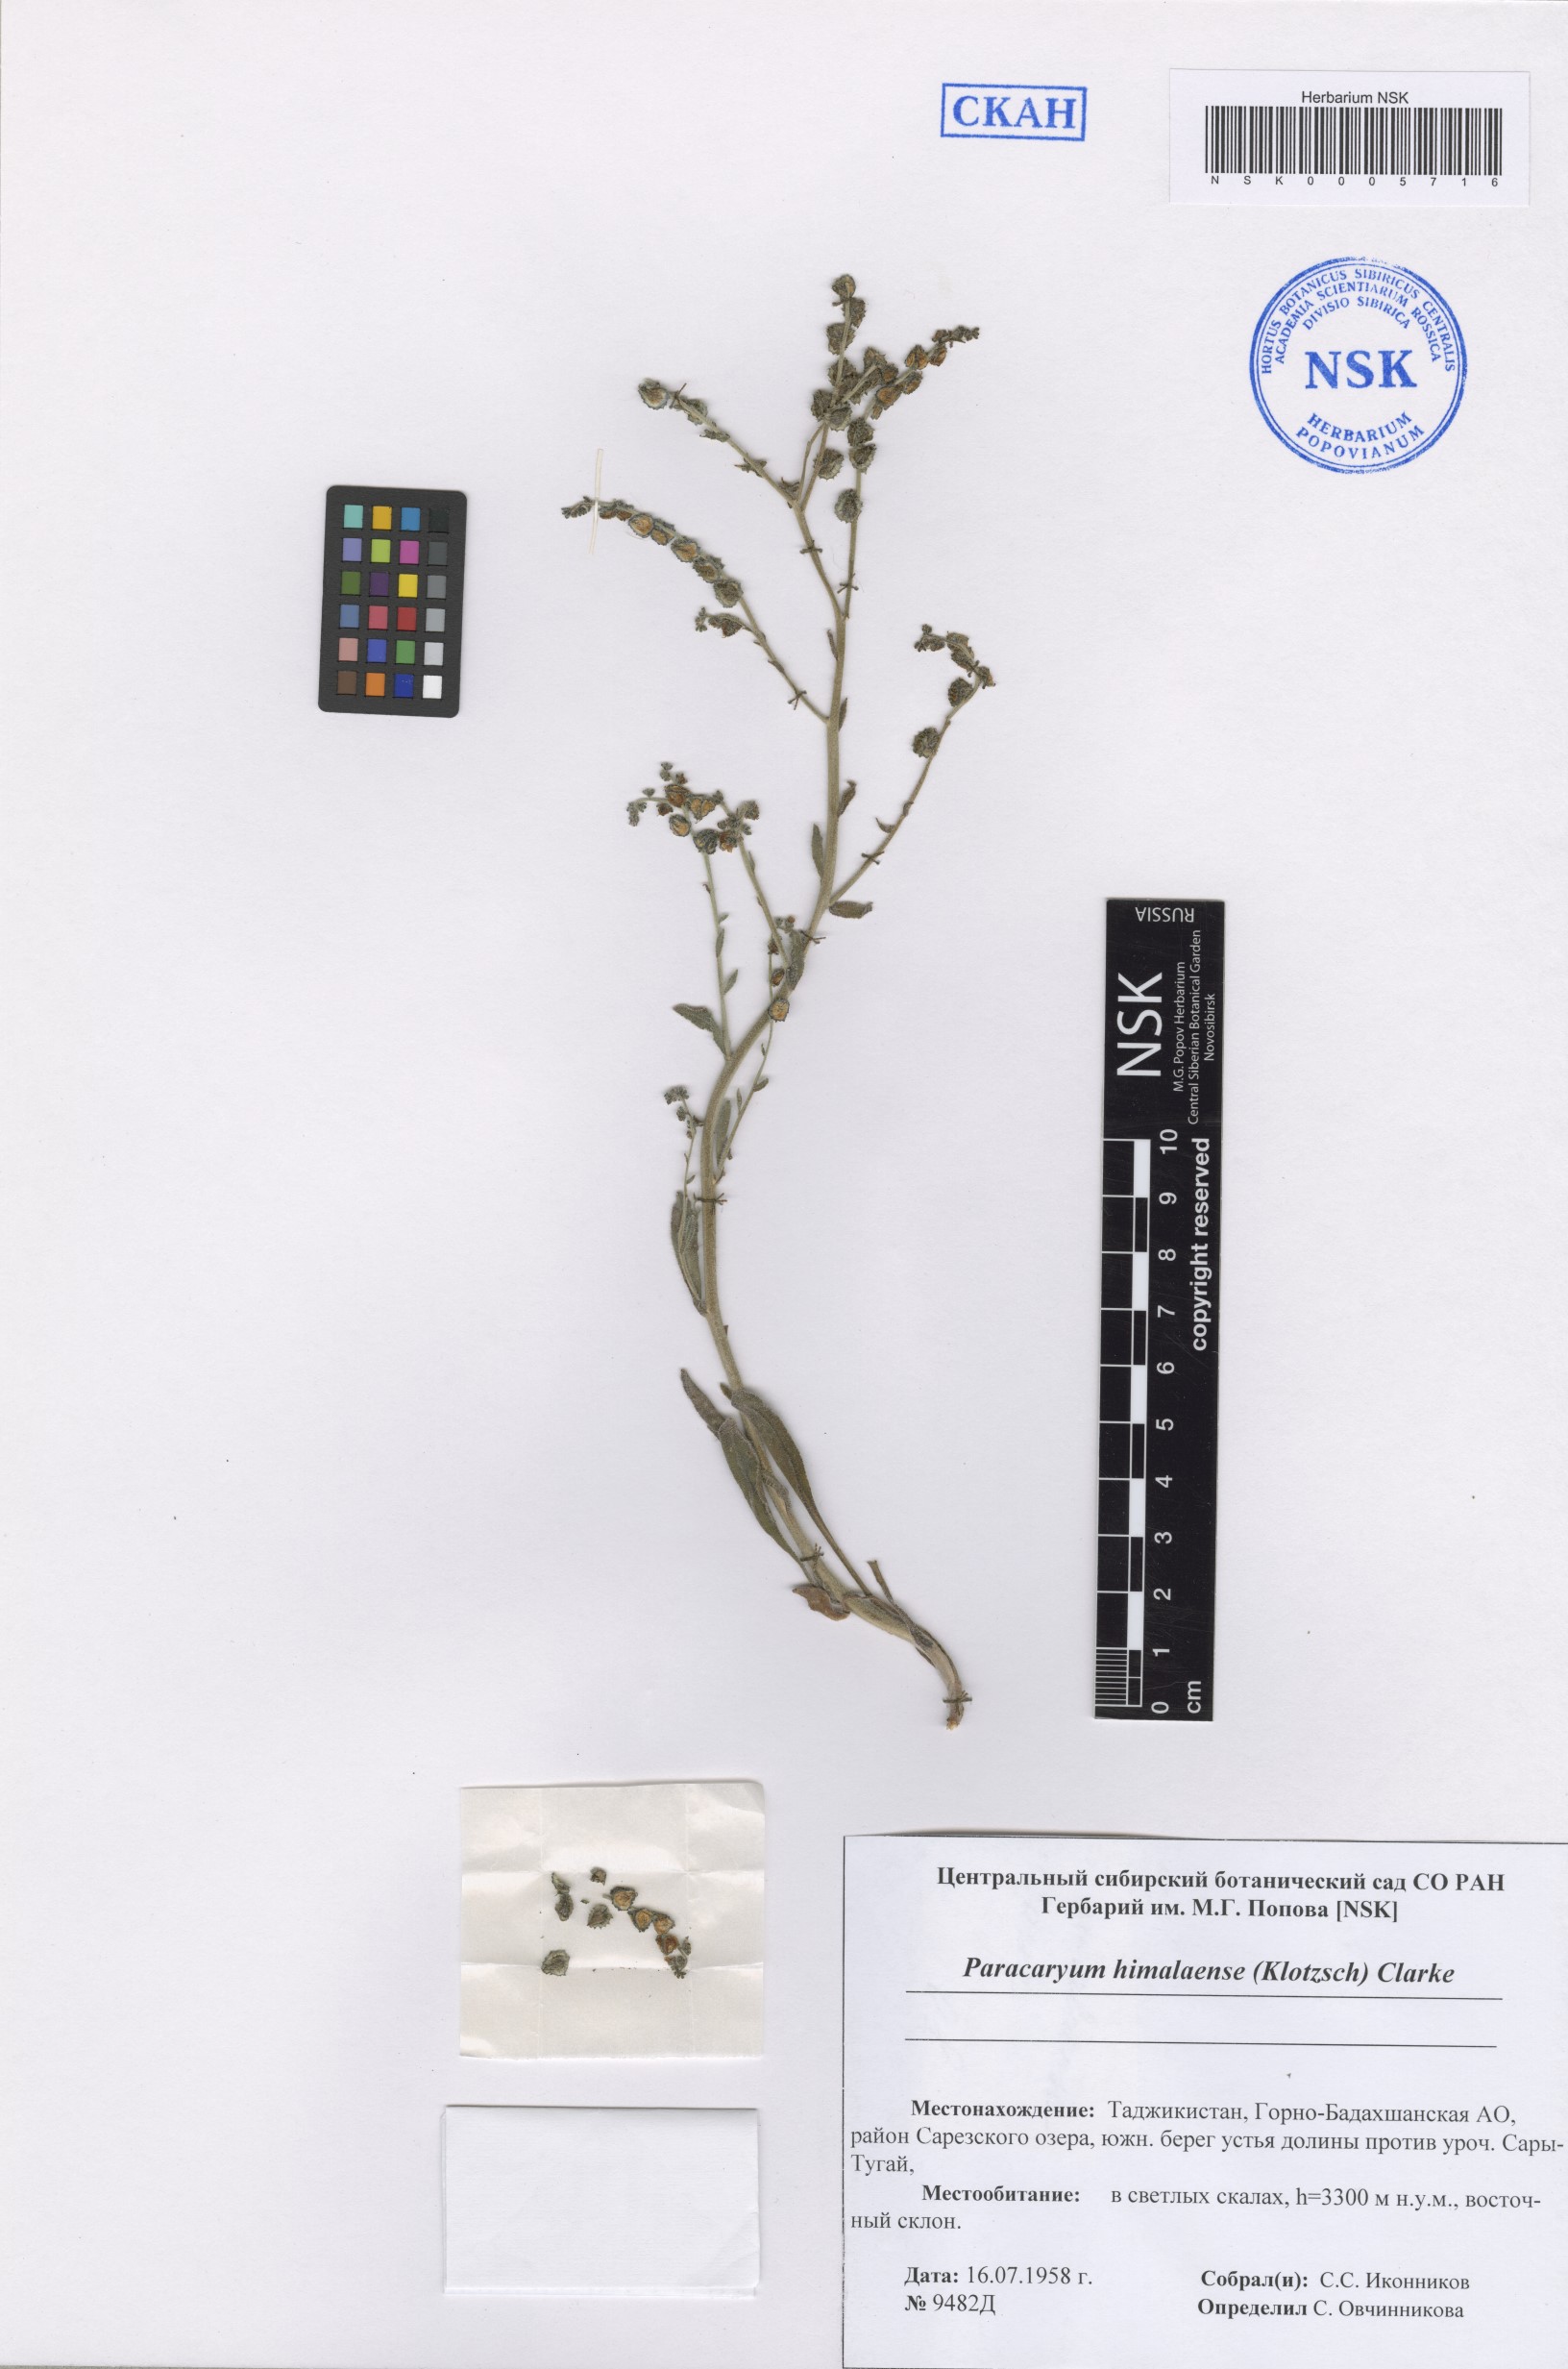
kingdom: Plantae
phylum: Tracheophyta
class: Magnoliopsida
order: Boraginales
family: Boraginaceae
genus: Paracaryum
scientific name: Paracaryum himalayense
